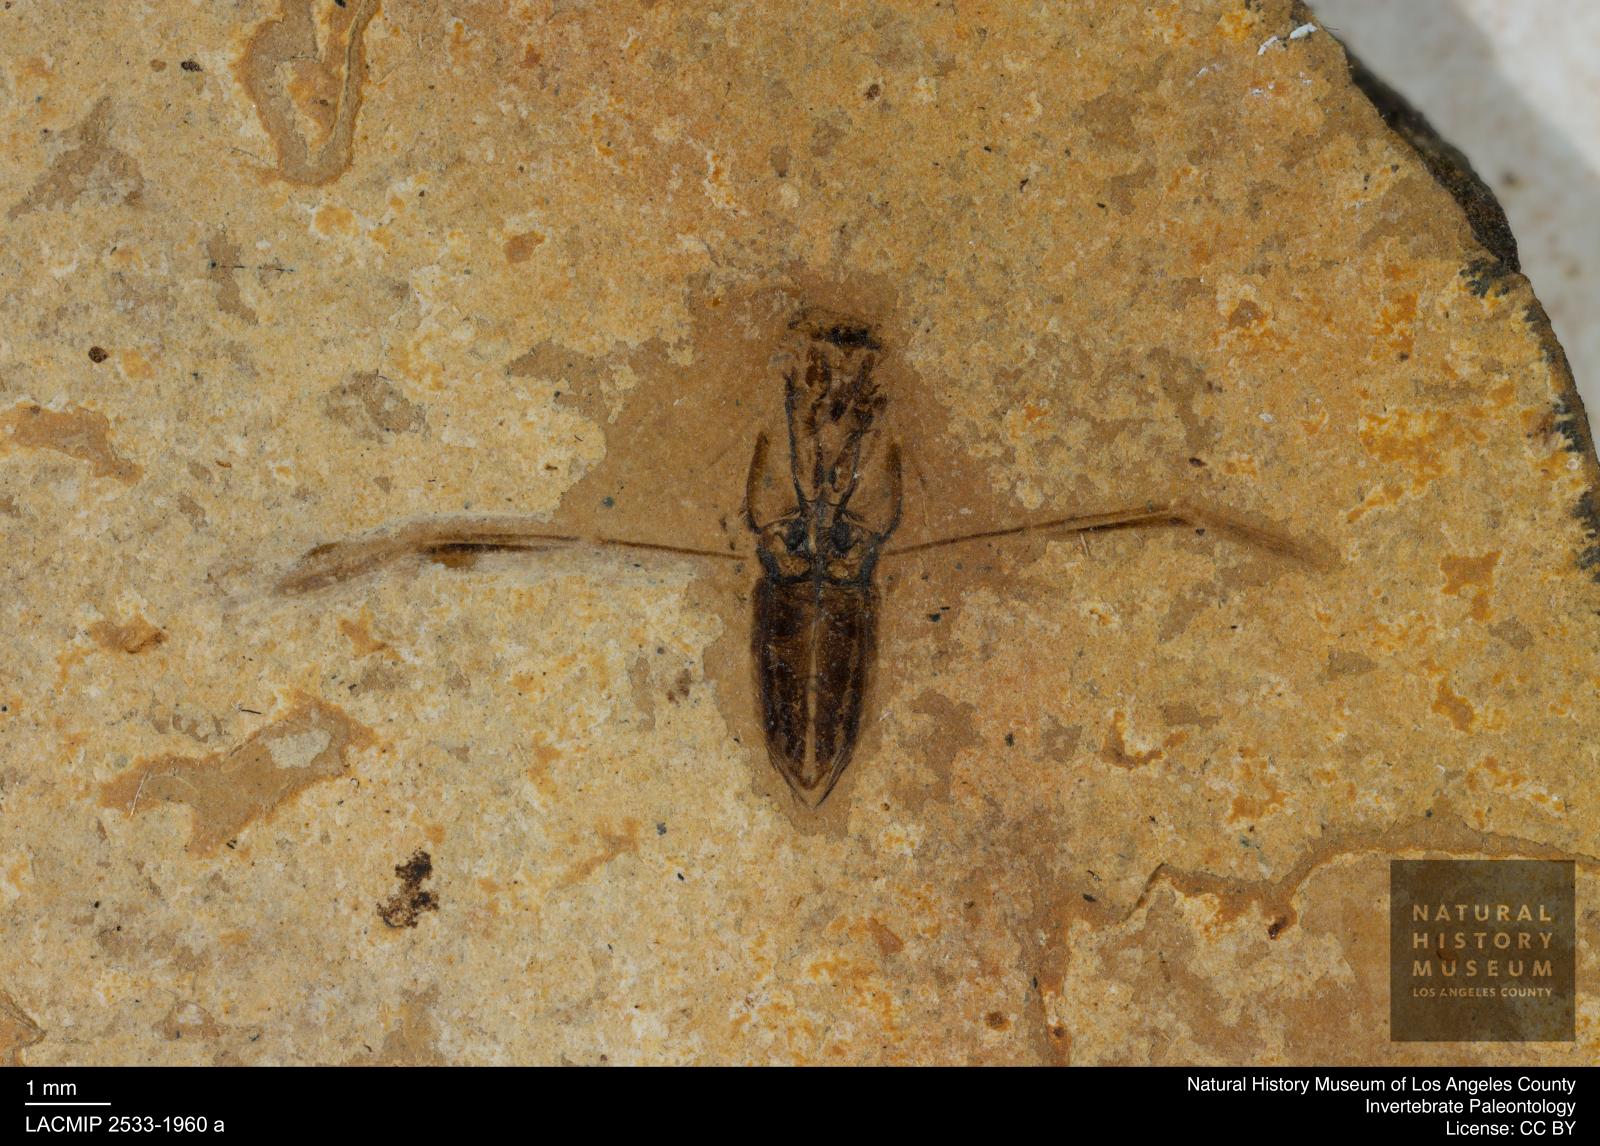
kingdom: Animalia
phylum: Arthropoda
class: Insecta
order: Hemiptera
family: Notonectidae
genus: Anisops
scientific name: Anisops Notonecta deichmuelleri
